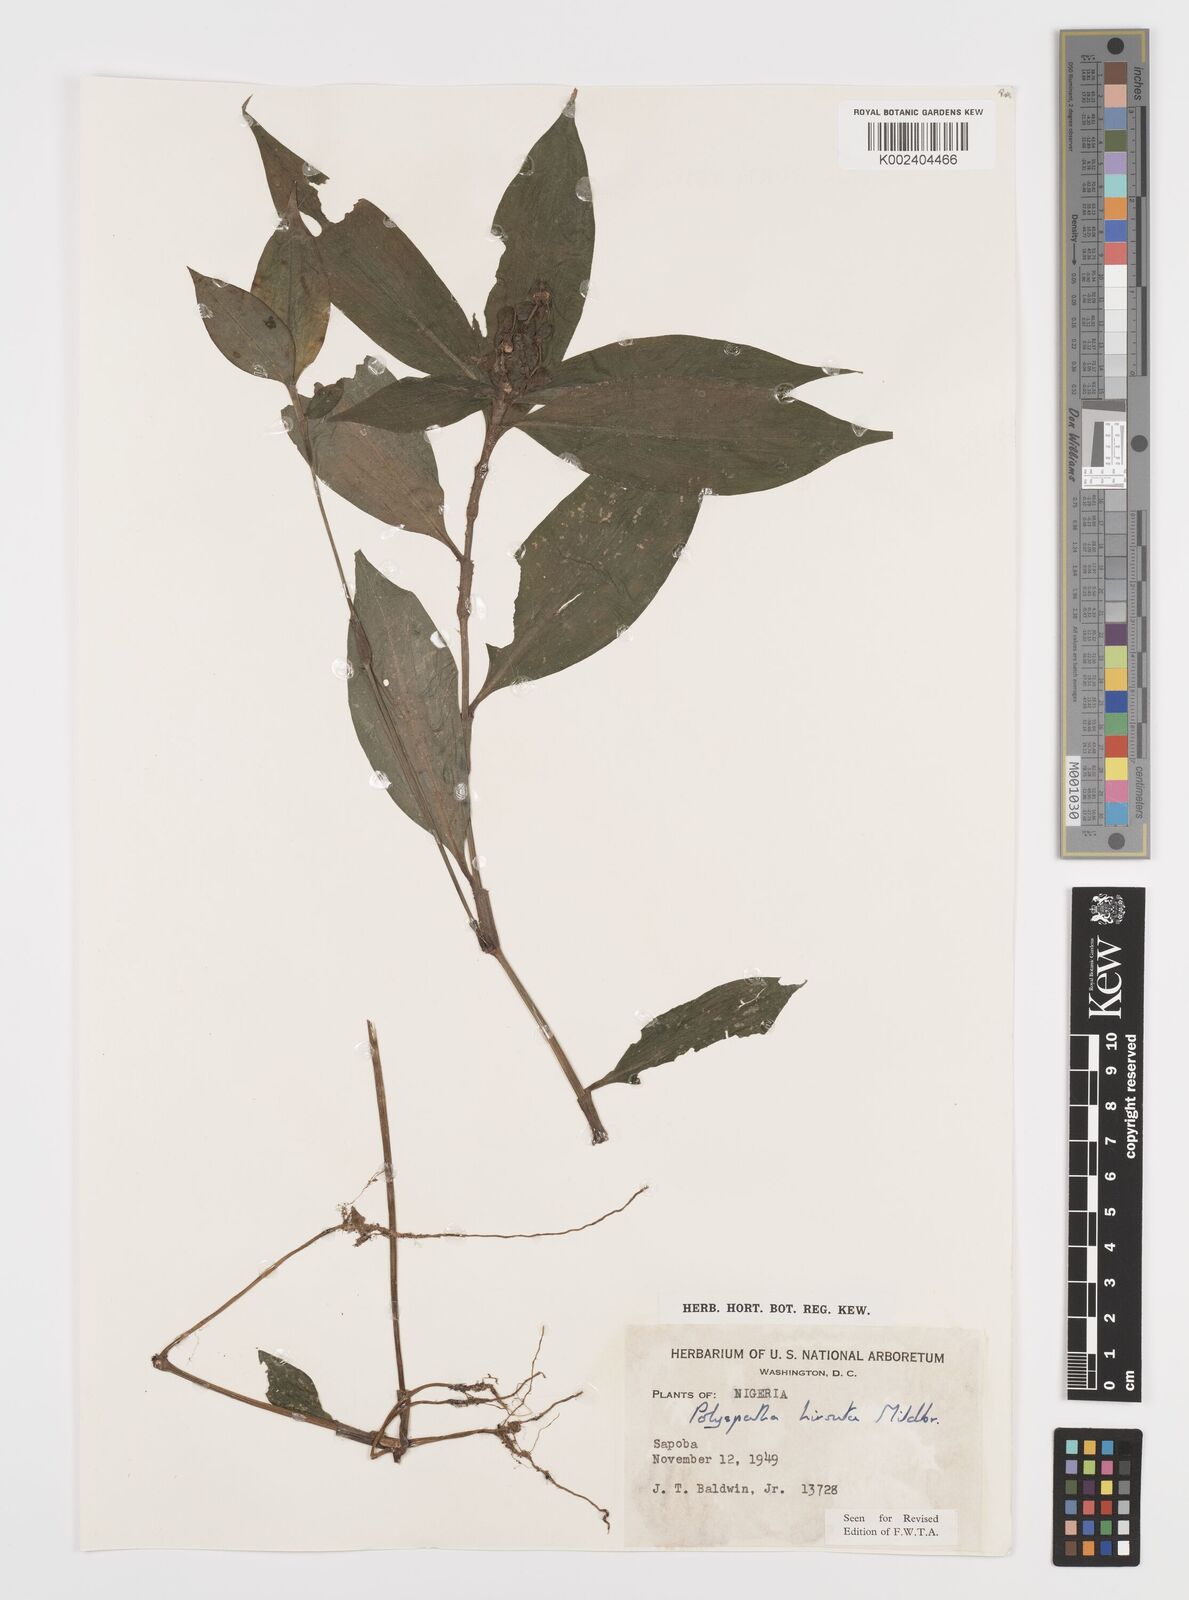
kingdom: Plantae
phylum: Tracheophyta
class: Liliopsida
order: Commelinales
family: Commelinaceae
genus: Polyspatha
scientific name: Polyspatha hirsuta
